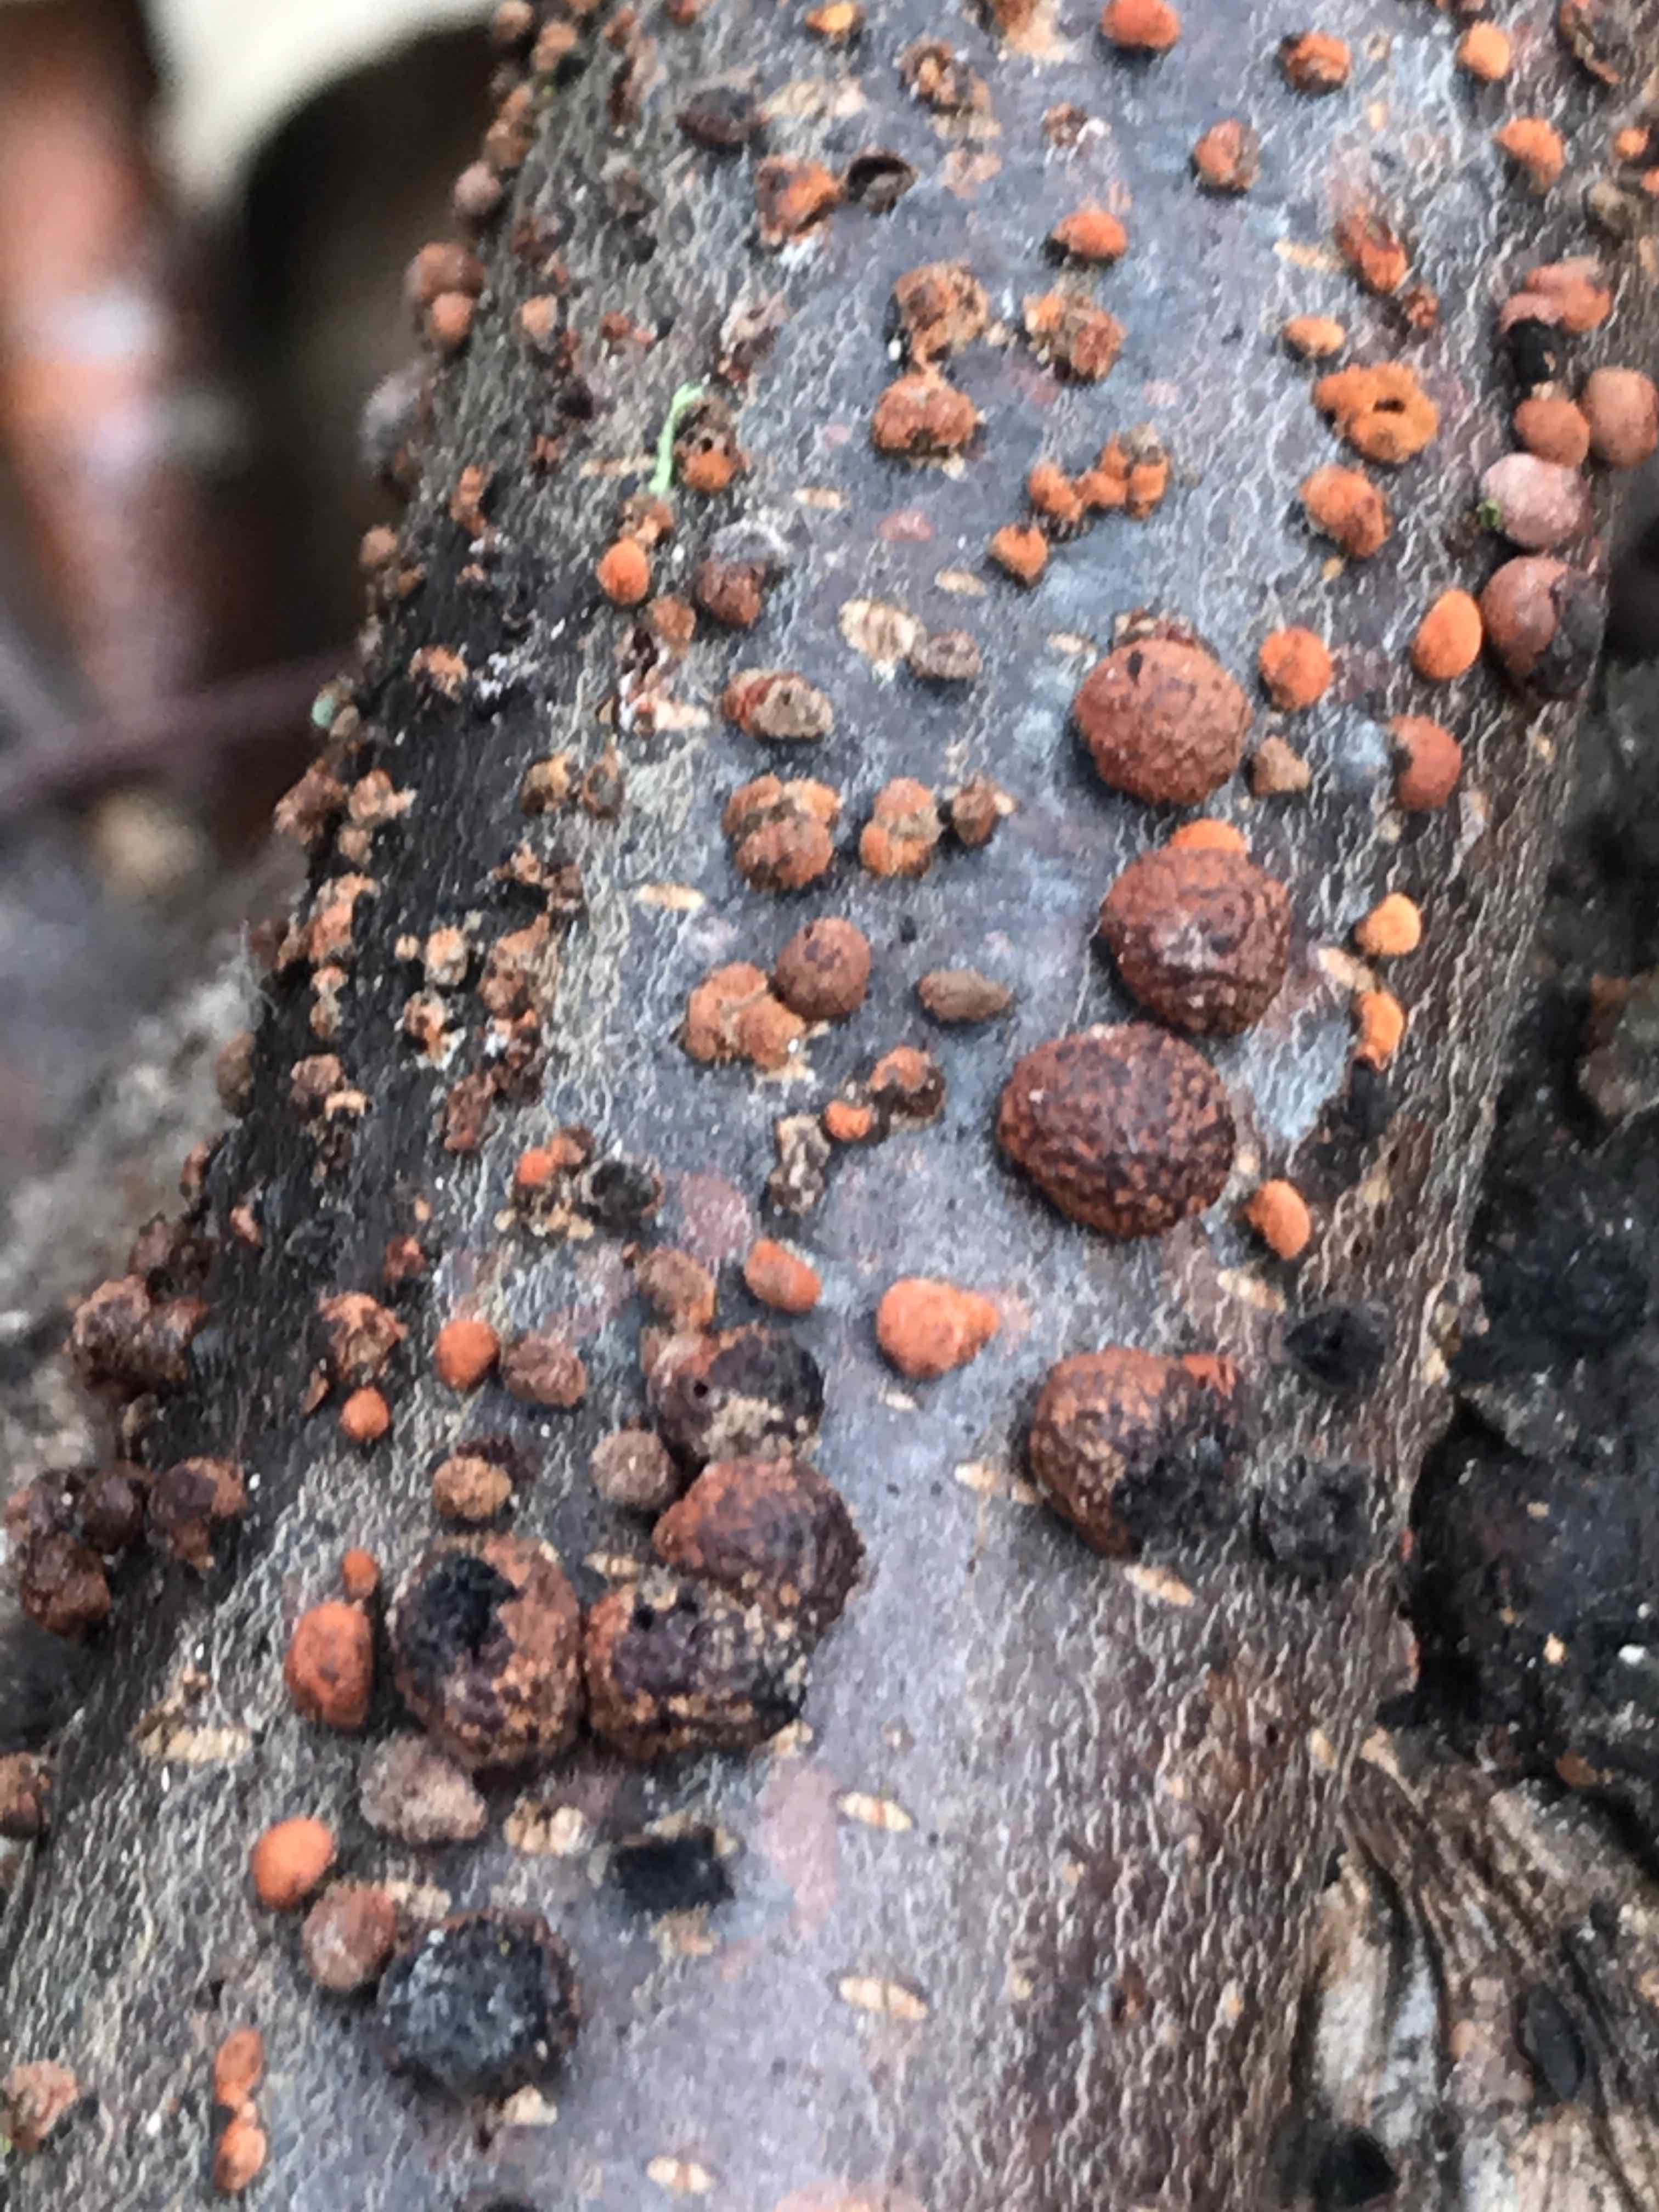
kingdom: Fungi
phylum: Ascomycota
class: Sordariomycetes
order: Xylariales
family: Hypoxylaceae
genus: Hypoxylon
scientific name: Hypoxylon fragiforme
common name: kuljordbær
